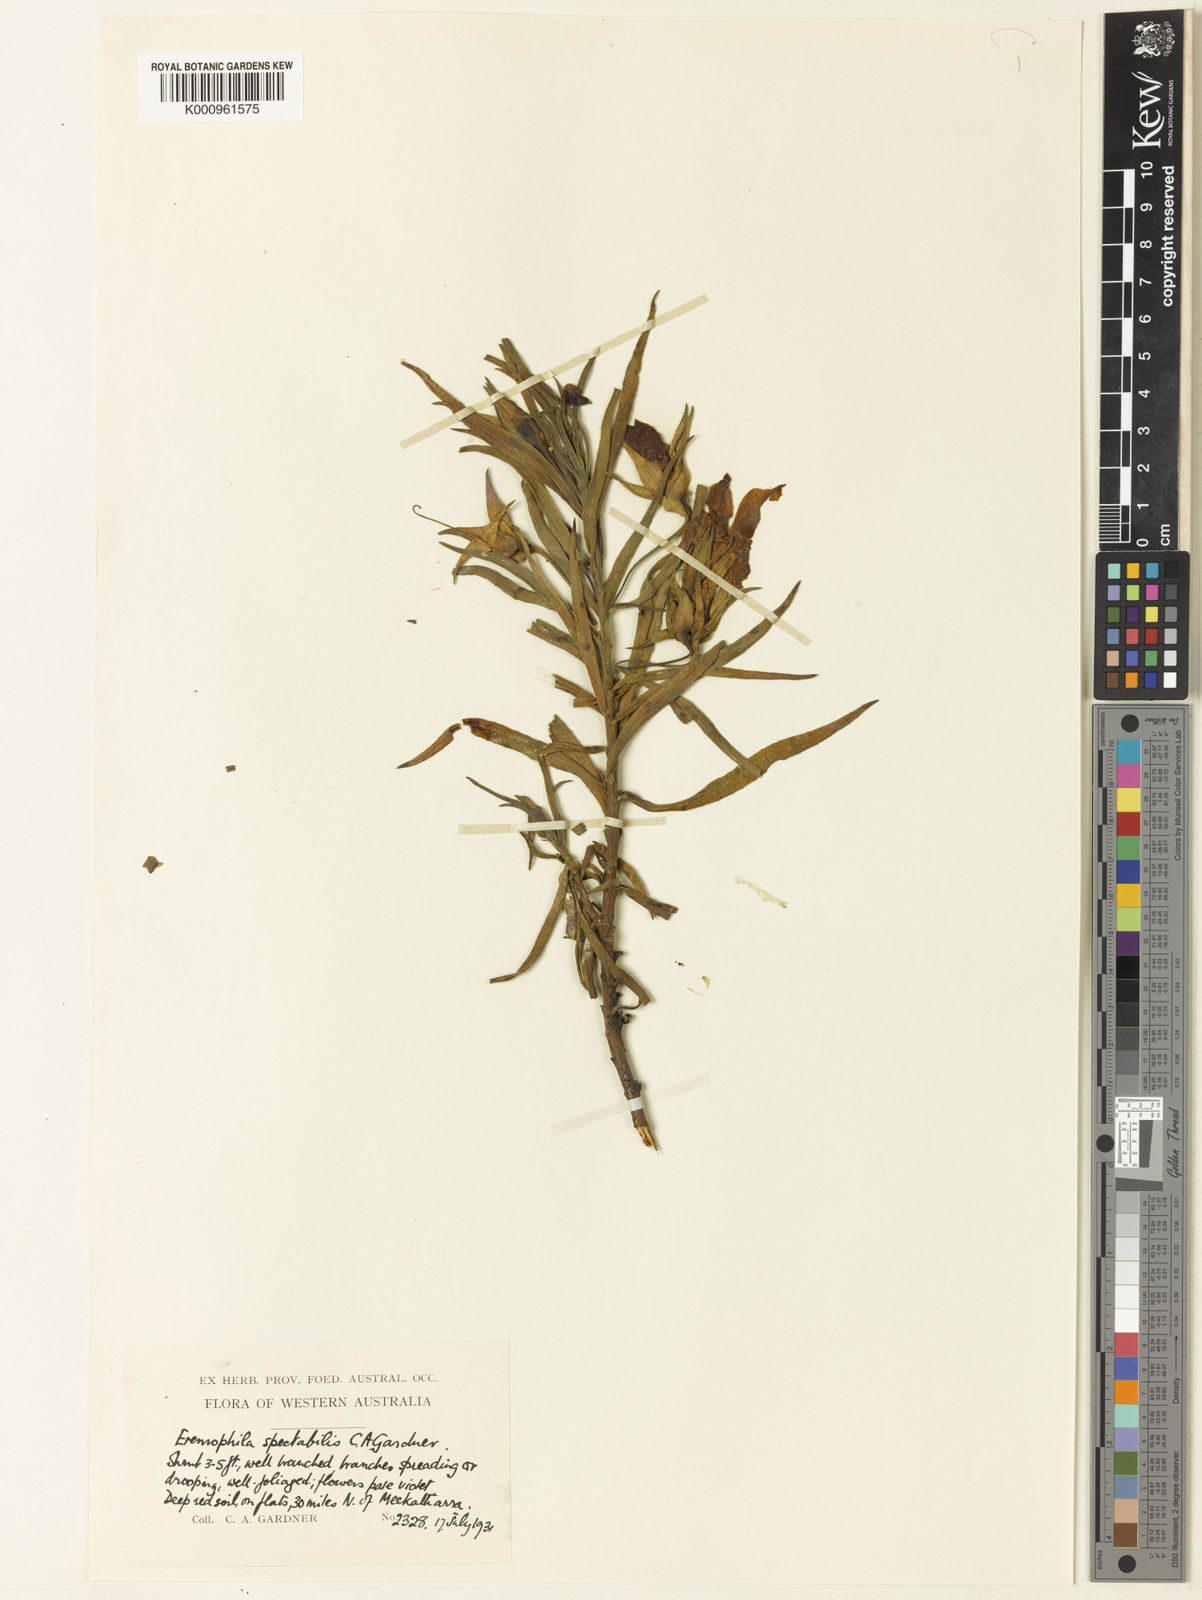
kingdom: Plantae
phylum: Tracheophyta
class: Magnoliopsida
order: Lamiales
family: Scrophulariaceae
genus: Eremophila
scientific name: Eremophila spectabilis
